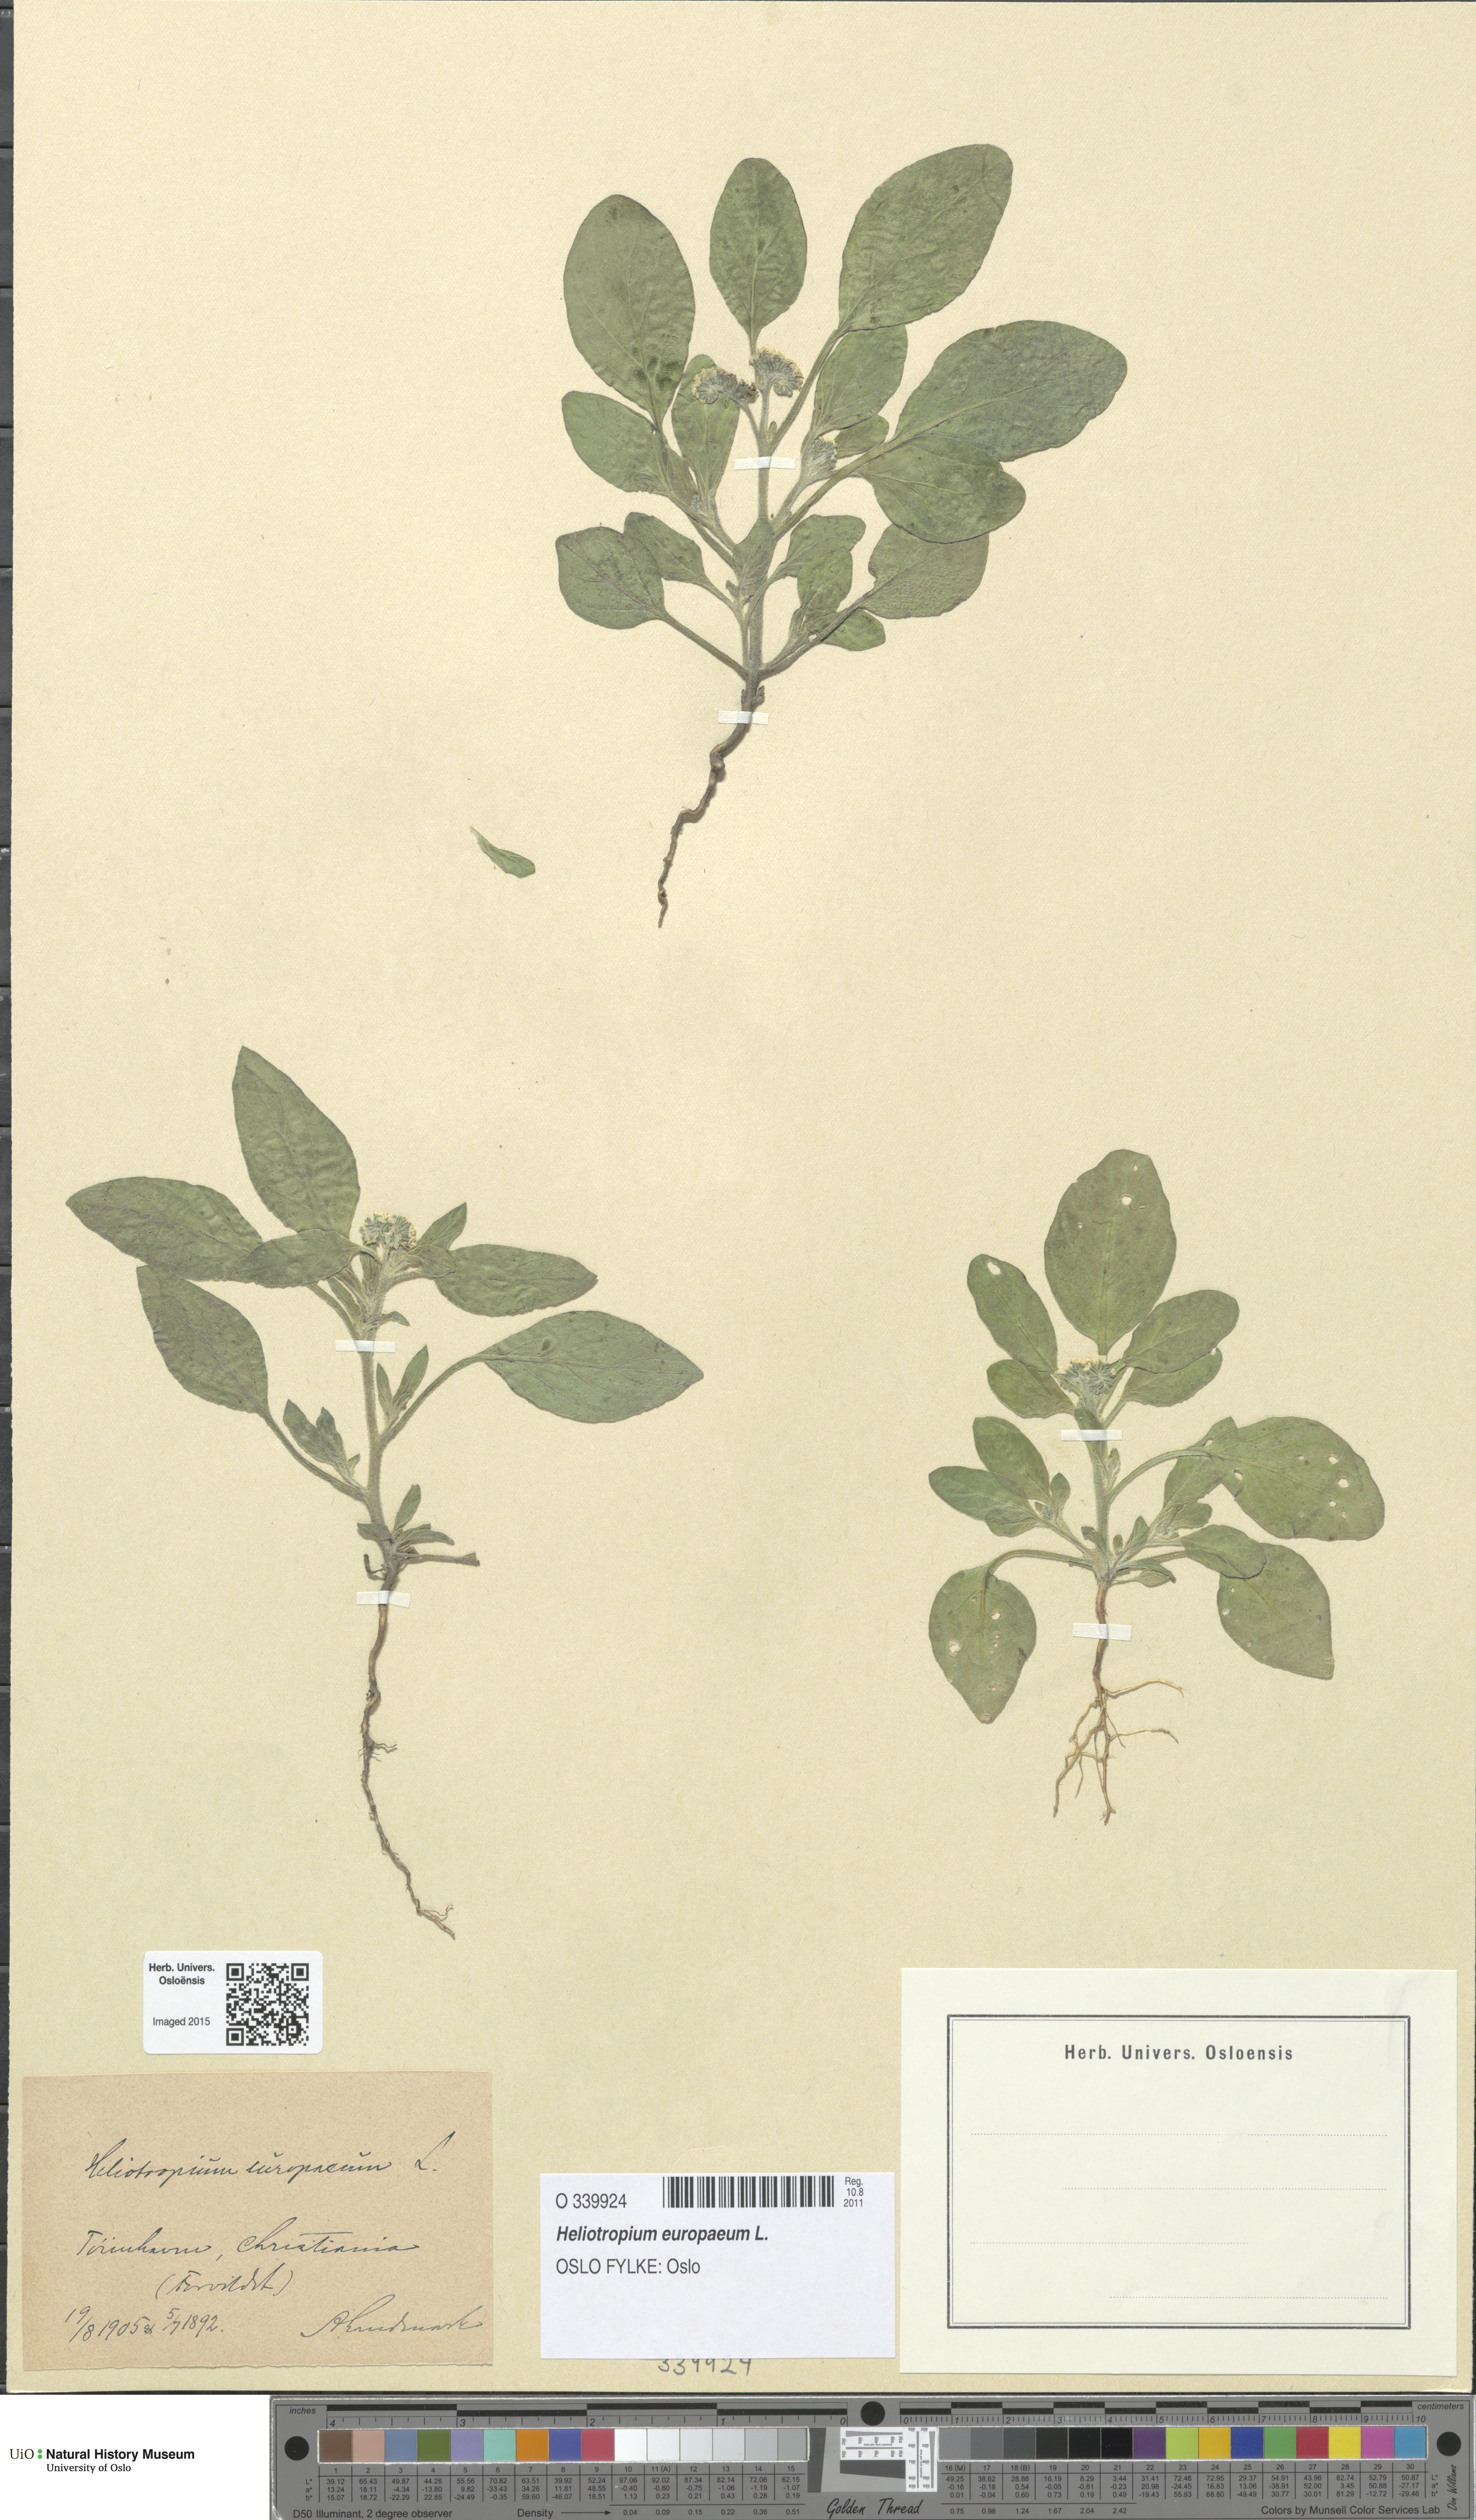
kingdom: Plantae
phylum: Tracheophyta
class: Magnoliopsida
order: Boraginales
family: Heliotropiaceae
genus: Heliotropium
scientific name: Heliotropium europaeum
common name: European heliotrope
